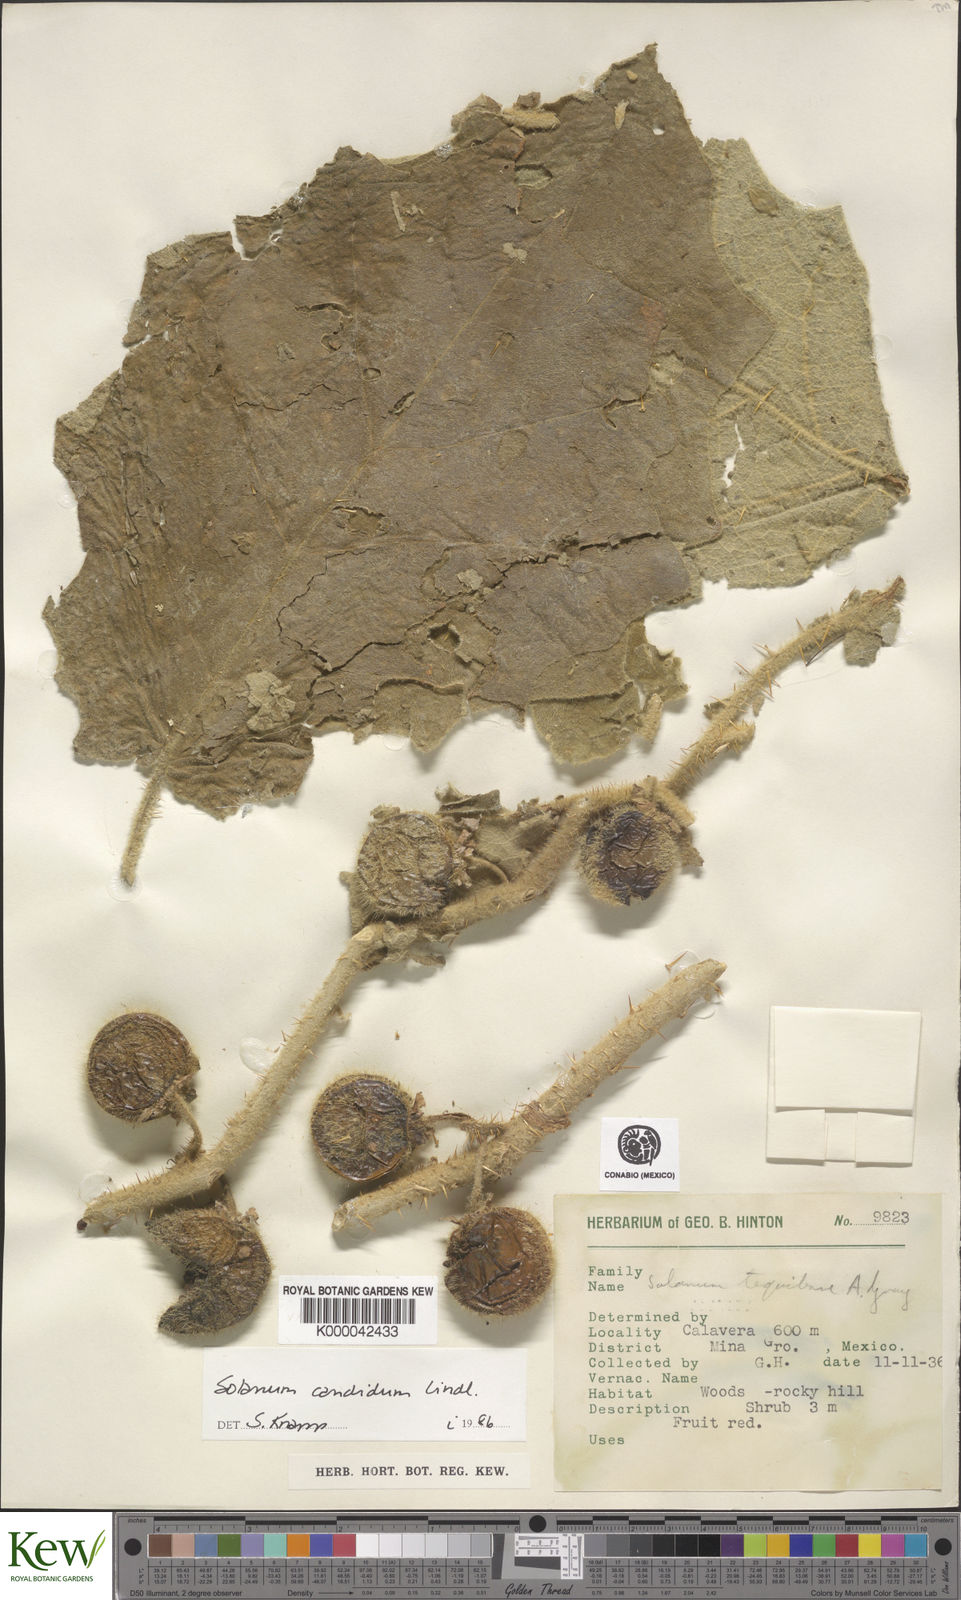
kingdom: Plantae
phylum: Tracheophyta
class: Magnoliopsida
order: Solanales
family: Solanaceae
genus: Solanum
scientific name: Solanum candidum
